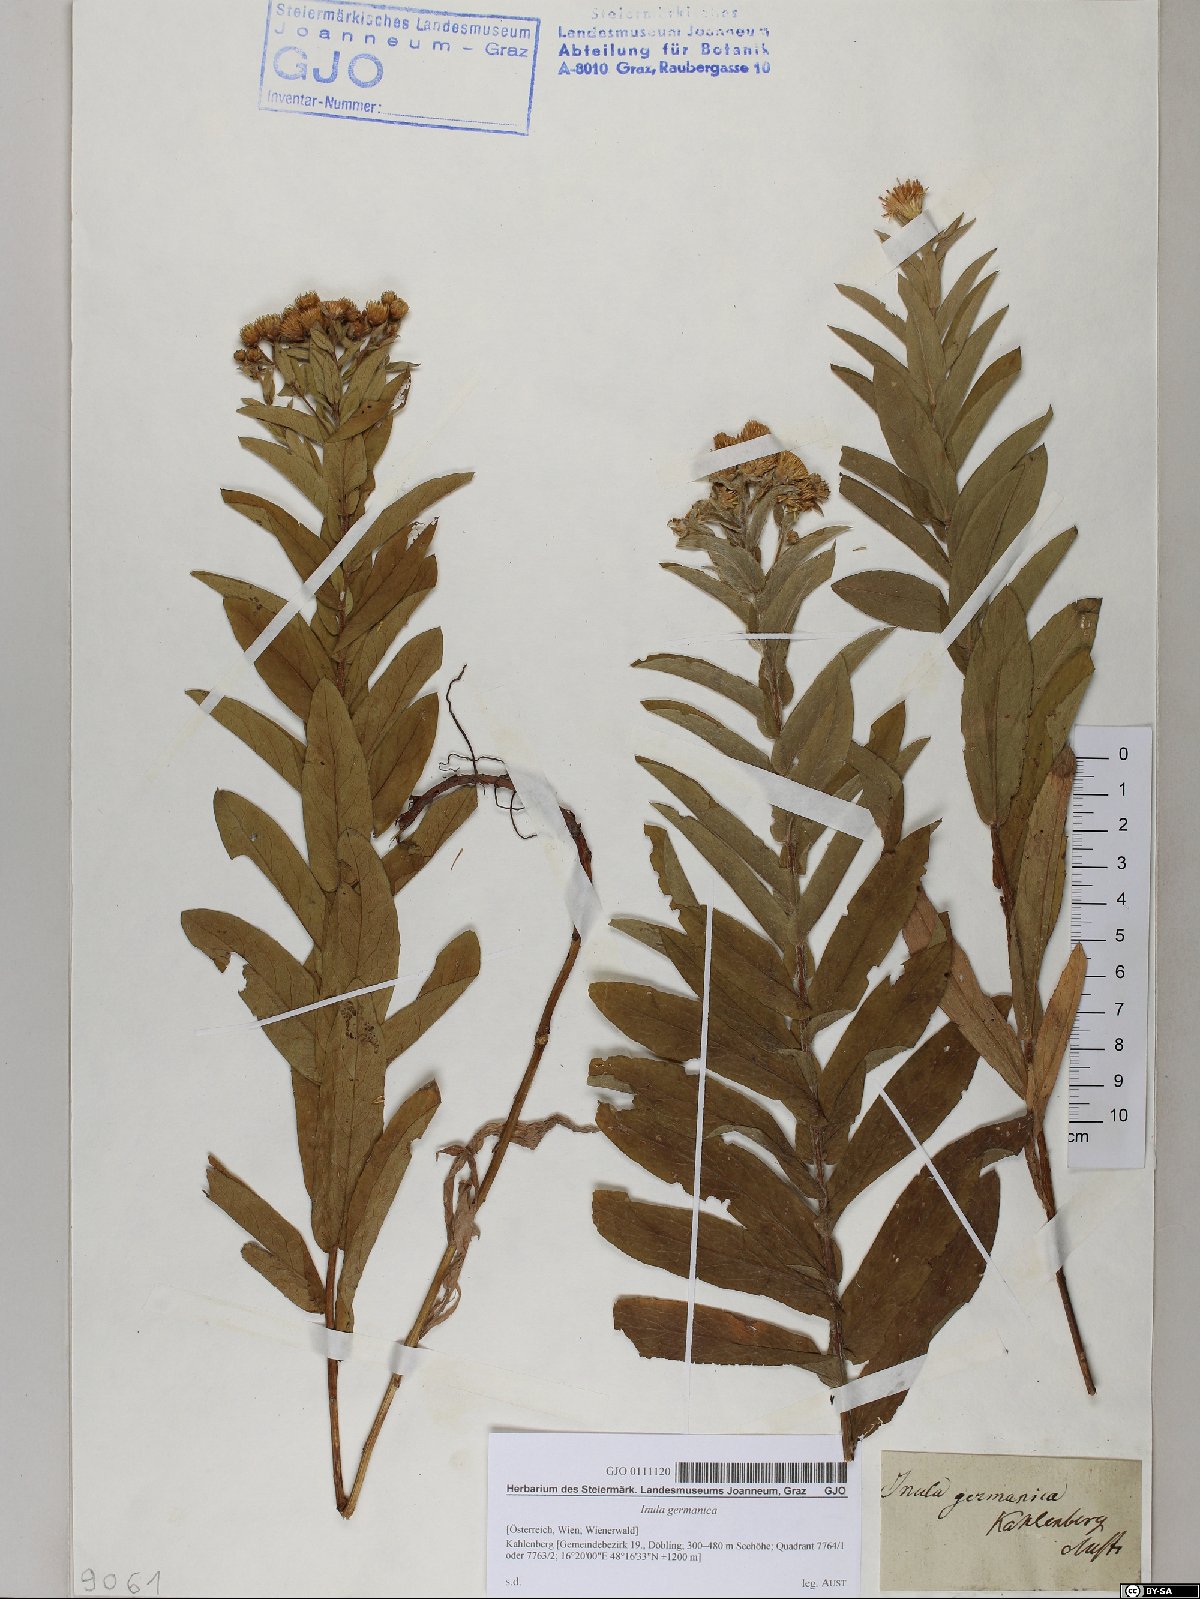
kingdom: Plantae
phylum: Tracheophyta
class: Magnoliopsida
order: Asterales
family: Asteraceae
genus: Pentanema
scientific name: Pentanema germanicum
